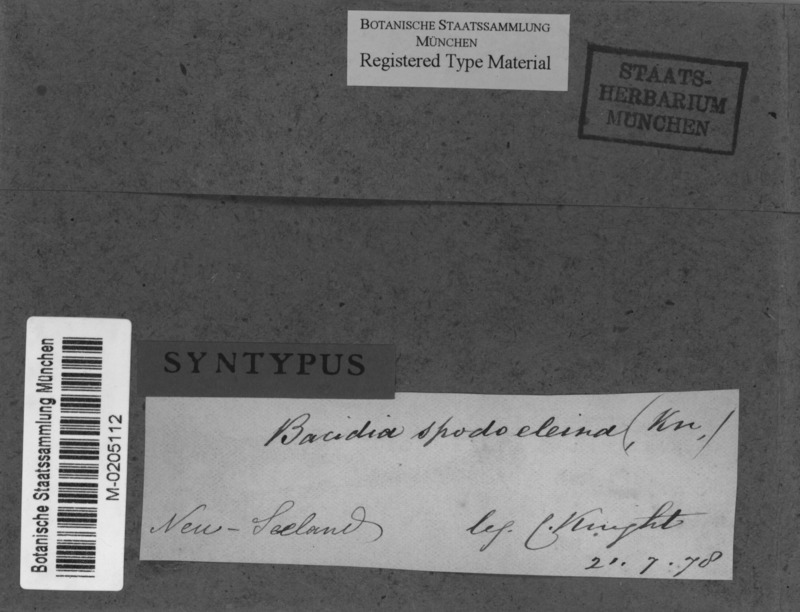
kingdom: Fungi
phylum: Ascomycota
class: Lecanoromycetes
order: Lecanorales
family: Ramalinaceae
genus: Bacidia
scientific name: Bacidia wellingtonii
